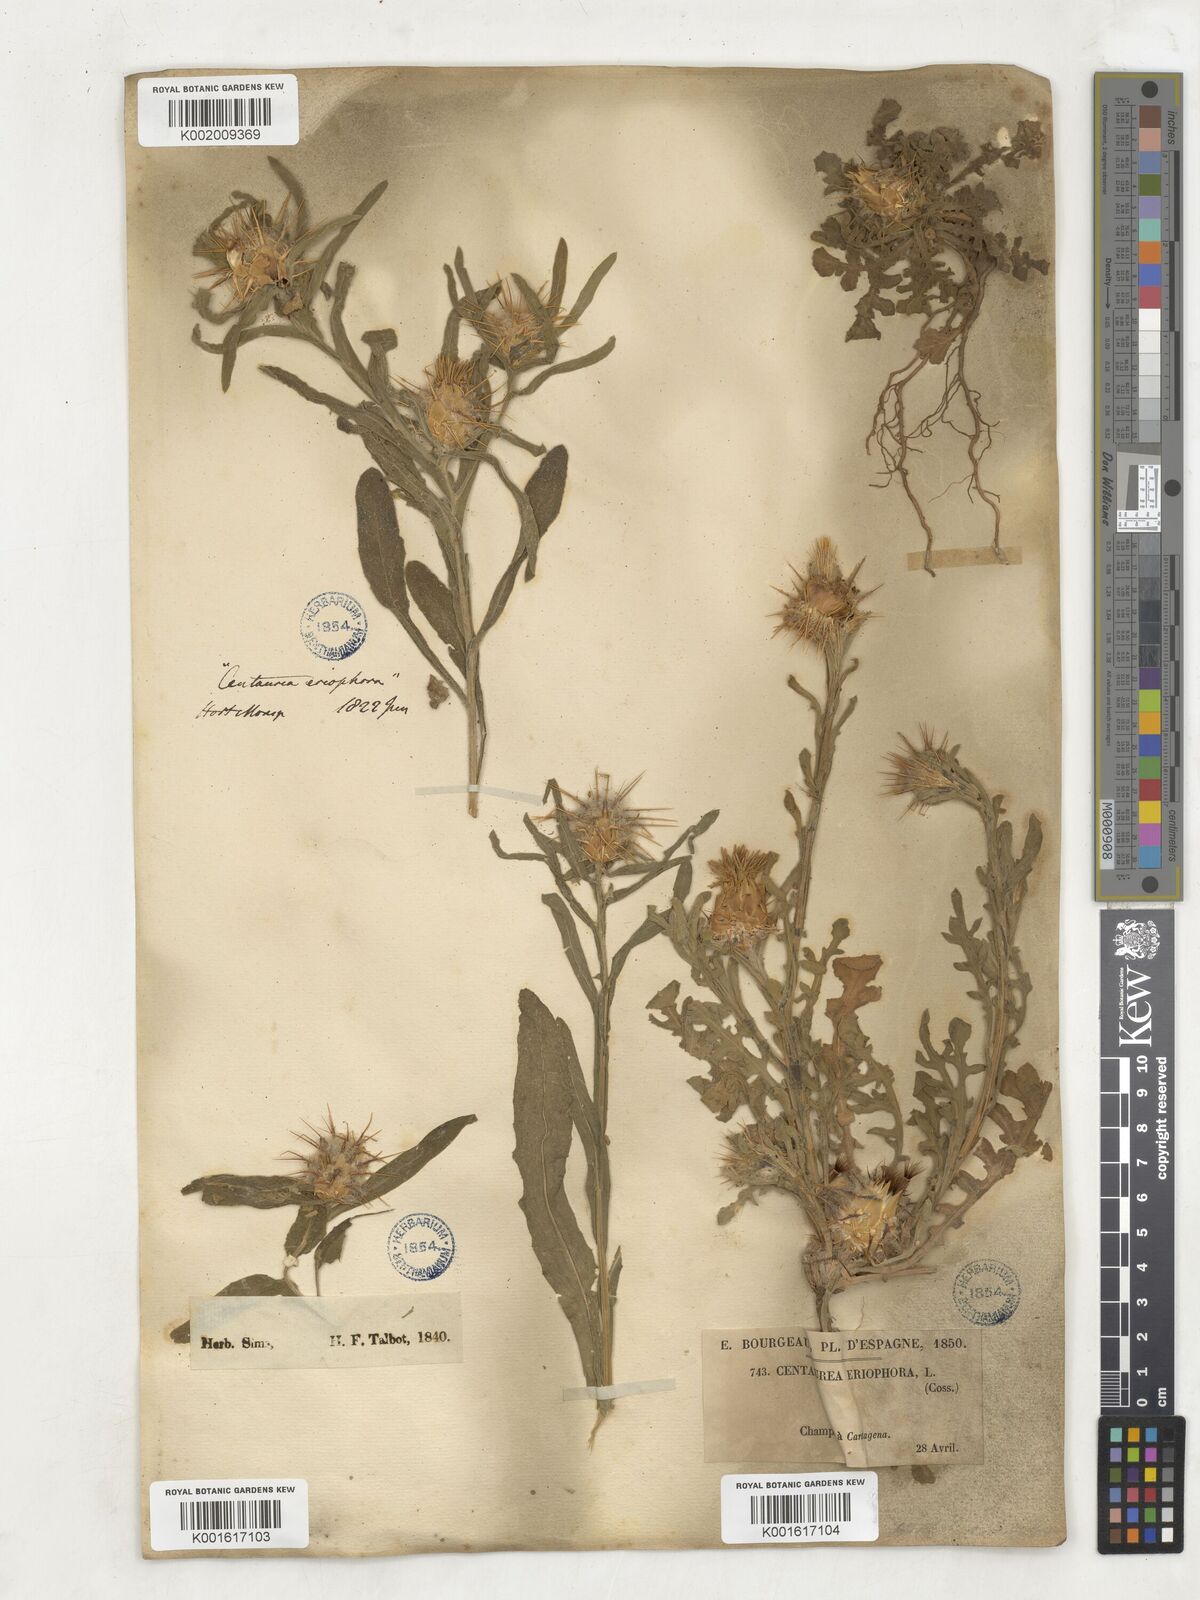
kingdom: Plantae
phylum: Tracheophyta
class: Magnoliopsida
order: Asterales
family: Asteraceae
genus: Centaurea
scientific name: Centaurea
